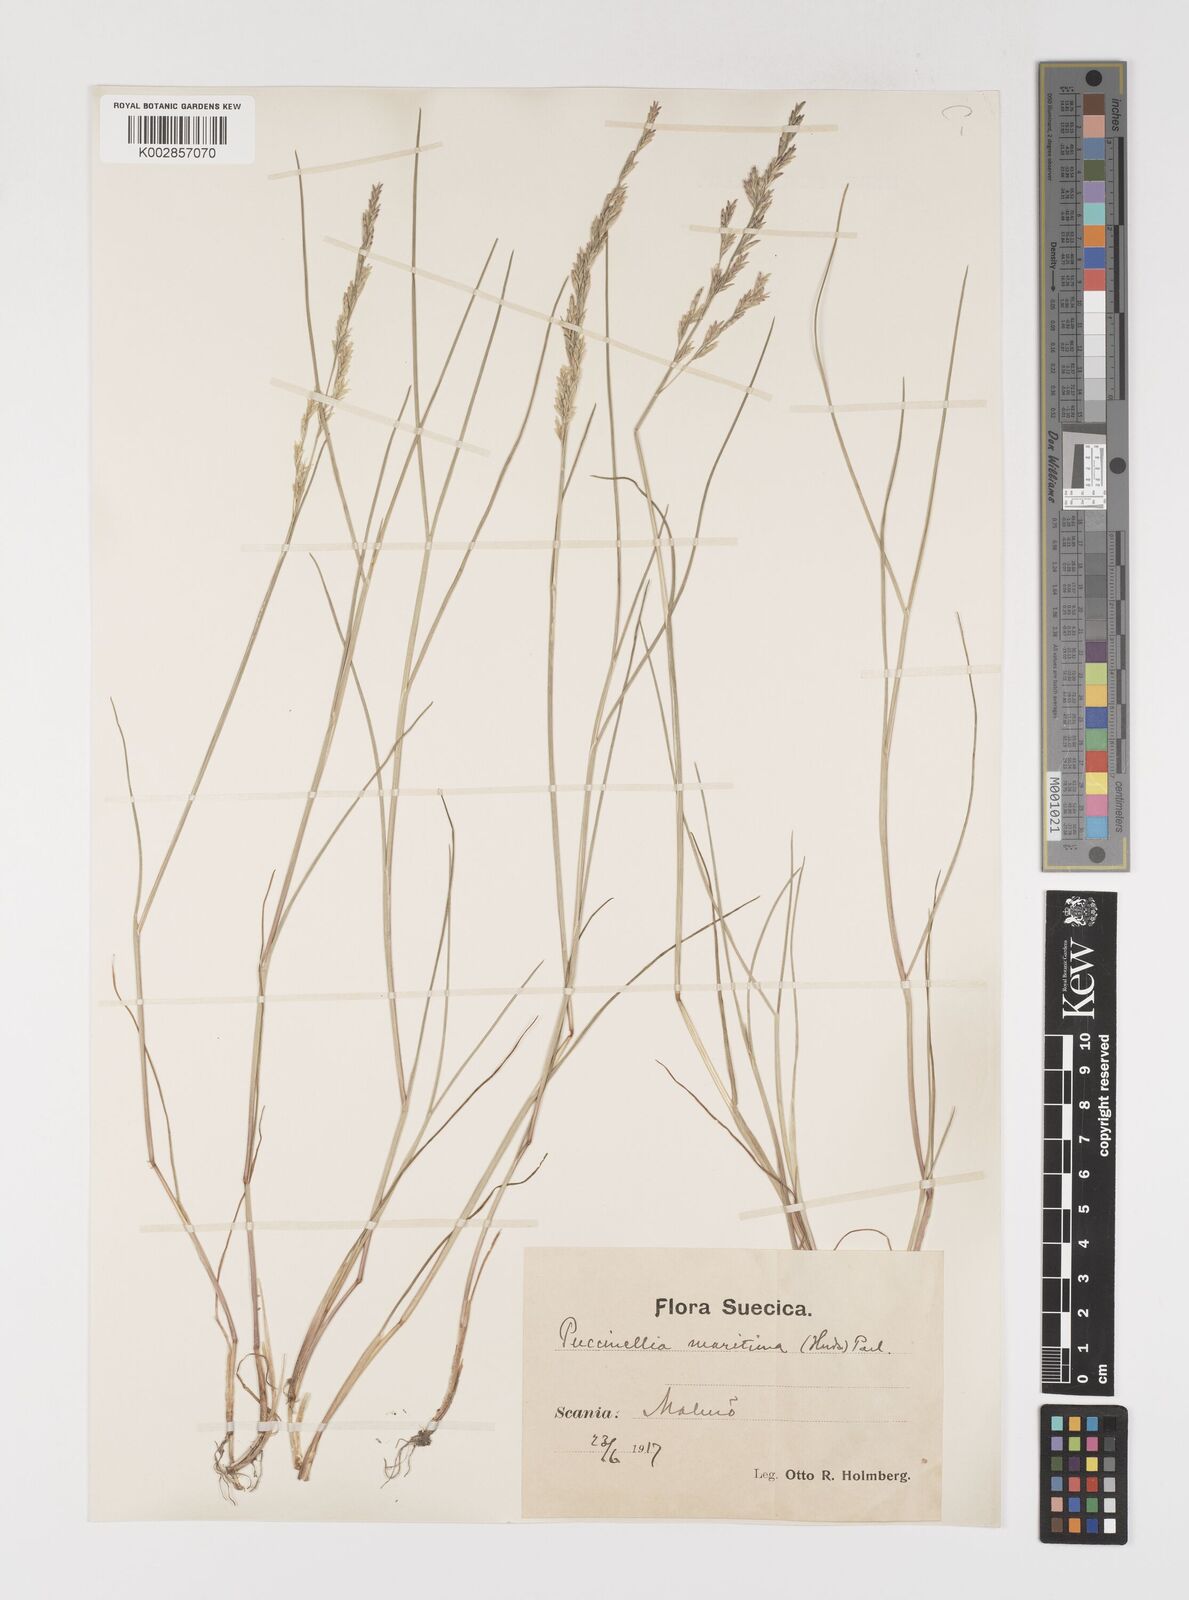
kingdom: Plantae
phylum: Tracheophyta
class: Liliopsida
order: Poales
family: Poaceae
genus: Puccinellia
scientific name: Puccinellia maritima
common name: Common saltmarsh grass
